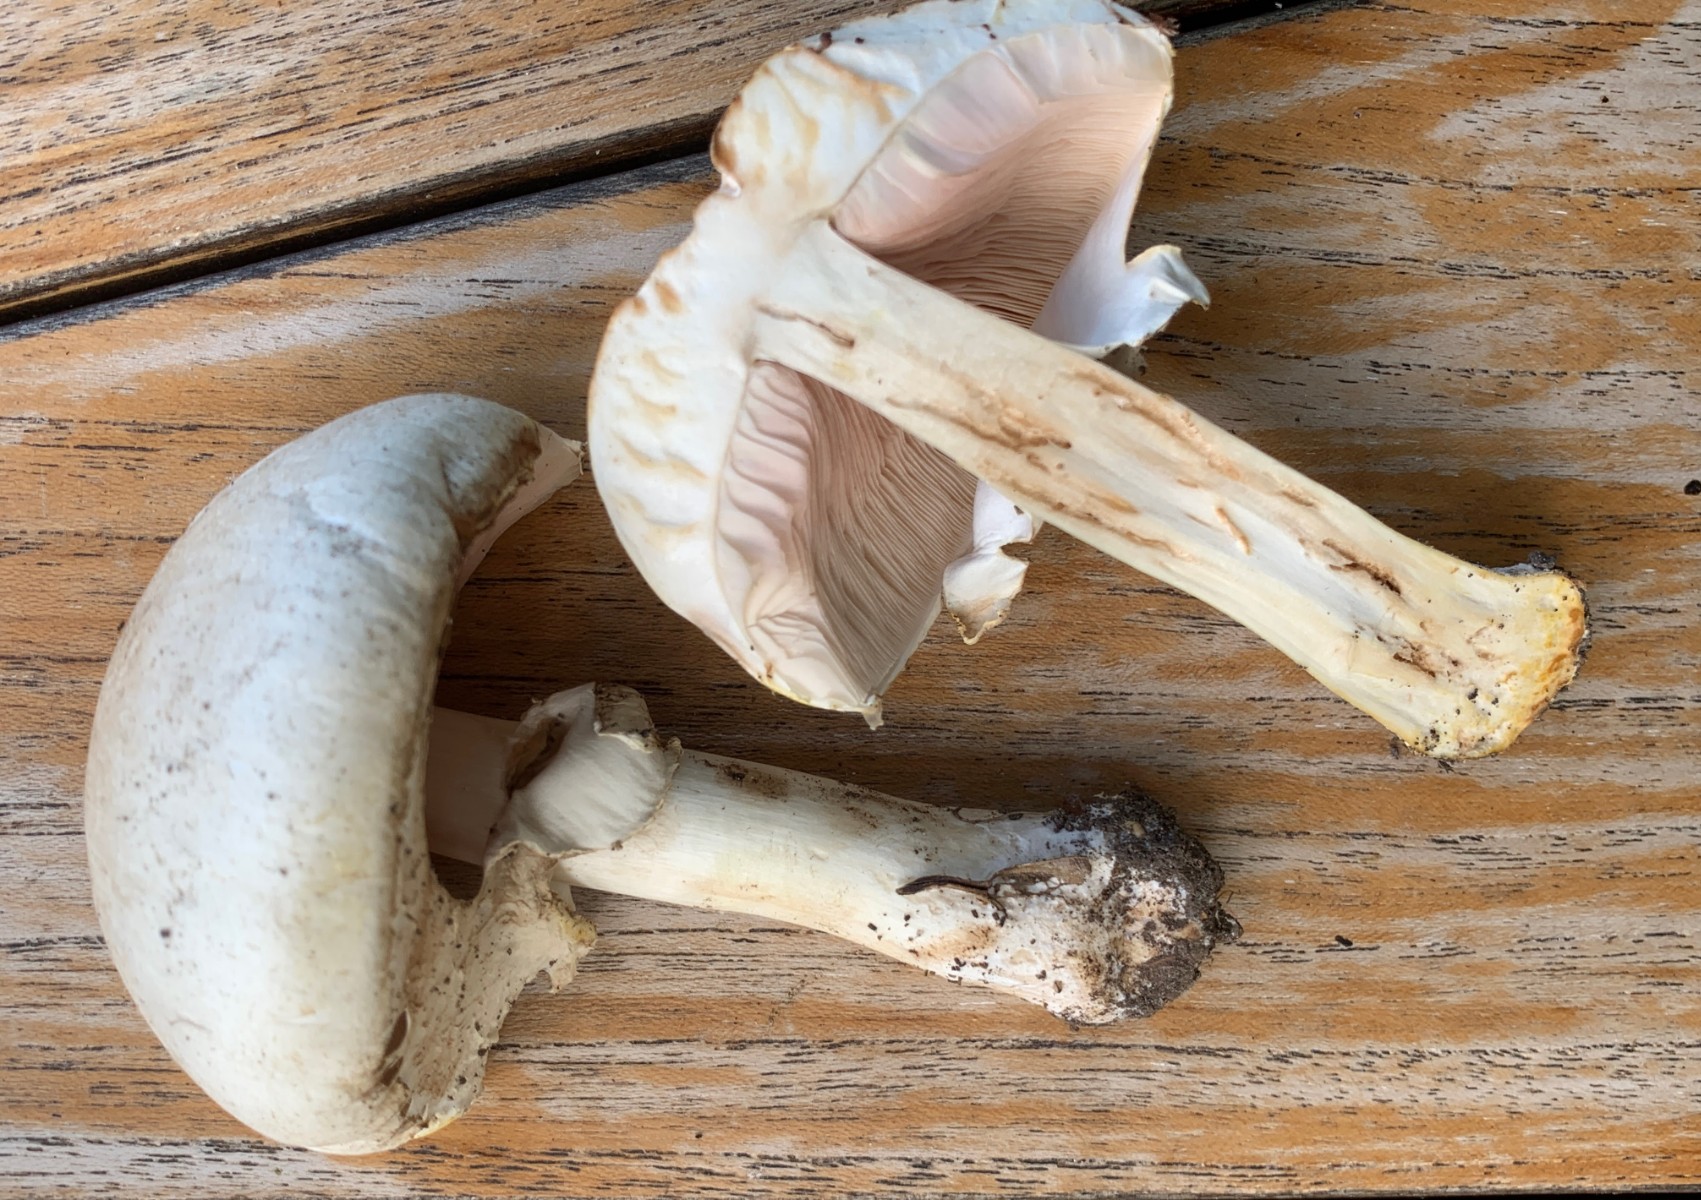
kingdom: Fungi
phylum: Basidiomycota
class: Agaricomycetes
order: Agaricales
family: Agaricaceae
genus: Agaricus
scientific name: Agaricus xanthodermus
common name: karbol-champignon
